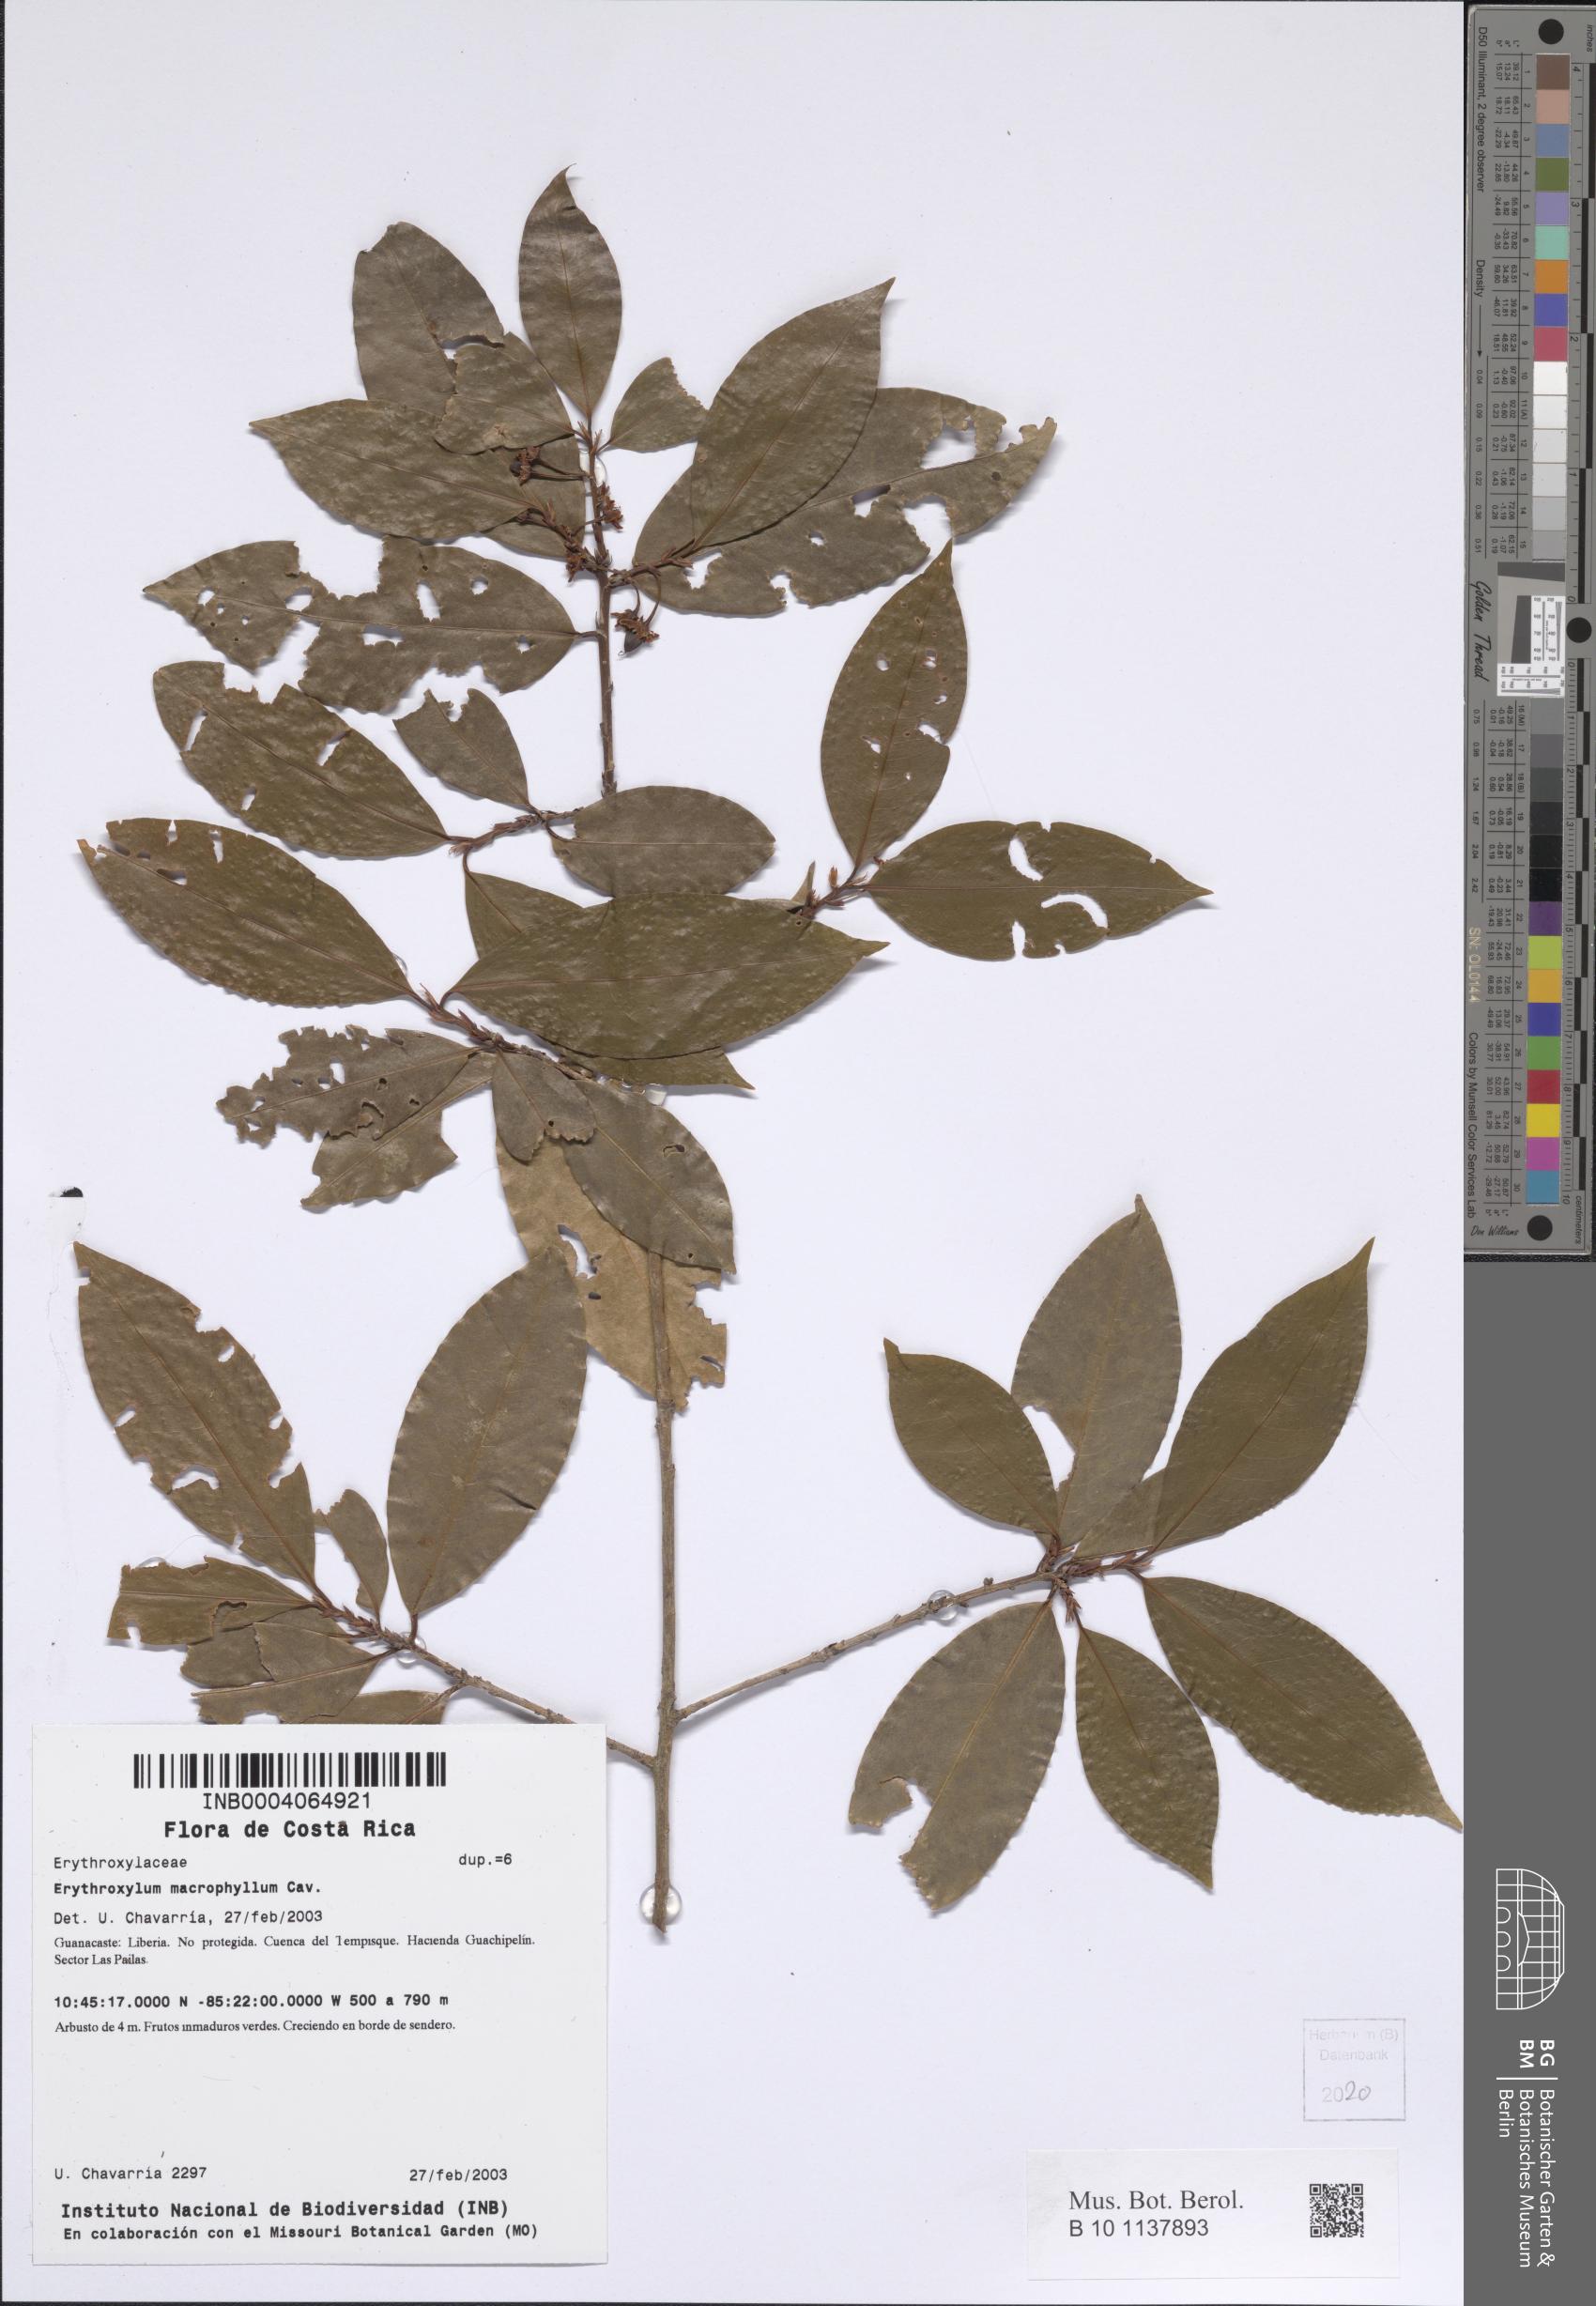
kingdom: Plantae
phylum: Tracheophyta
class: Magnoliopsida
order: Malpighiales
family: Erythroxylaceae
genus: Erythroxylum
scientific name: Erythroxylum macrophyllum
